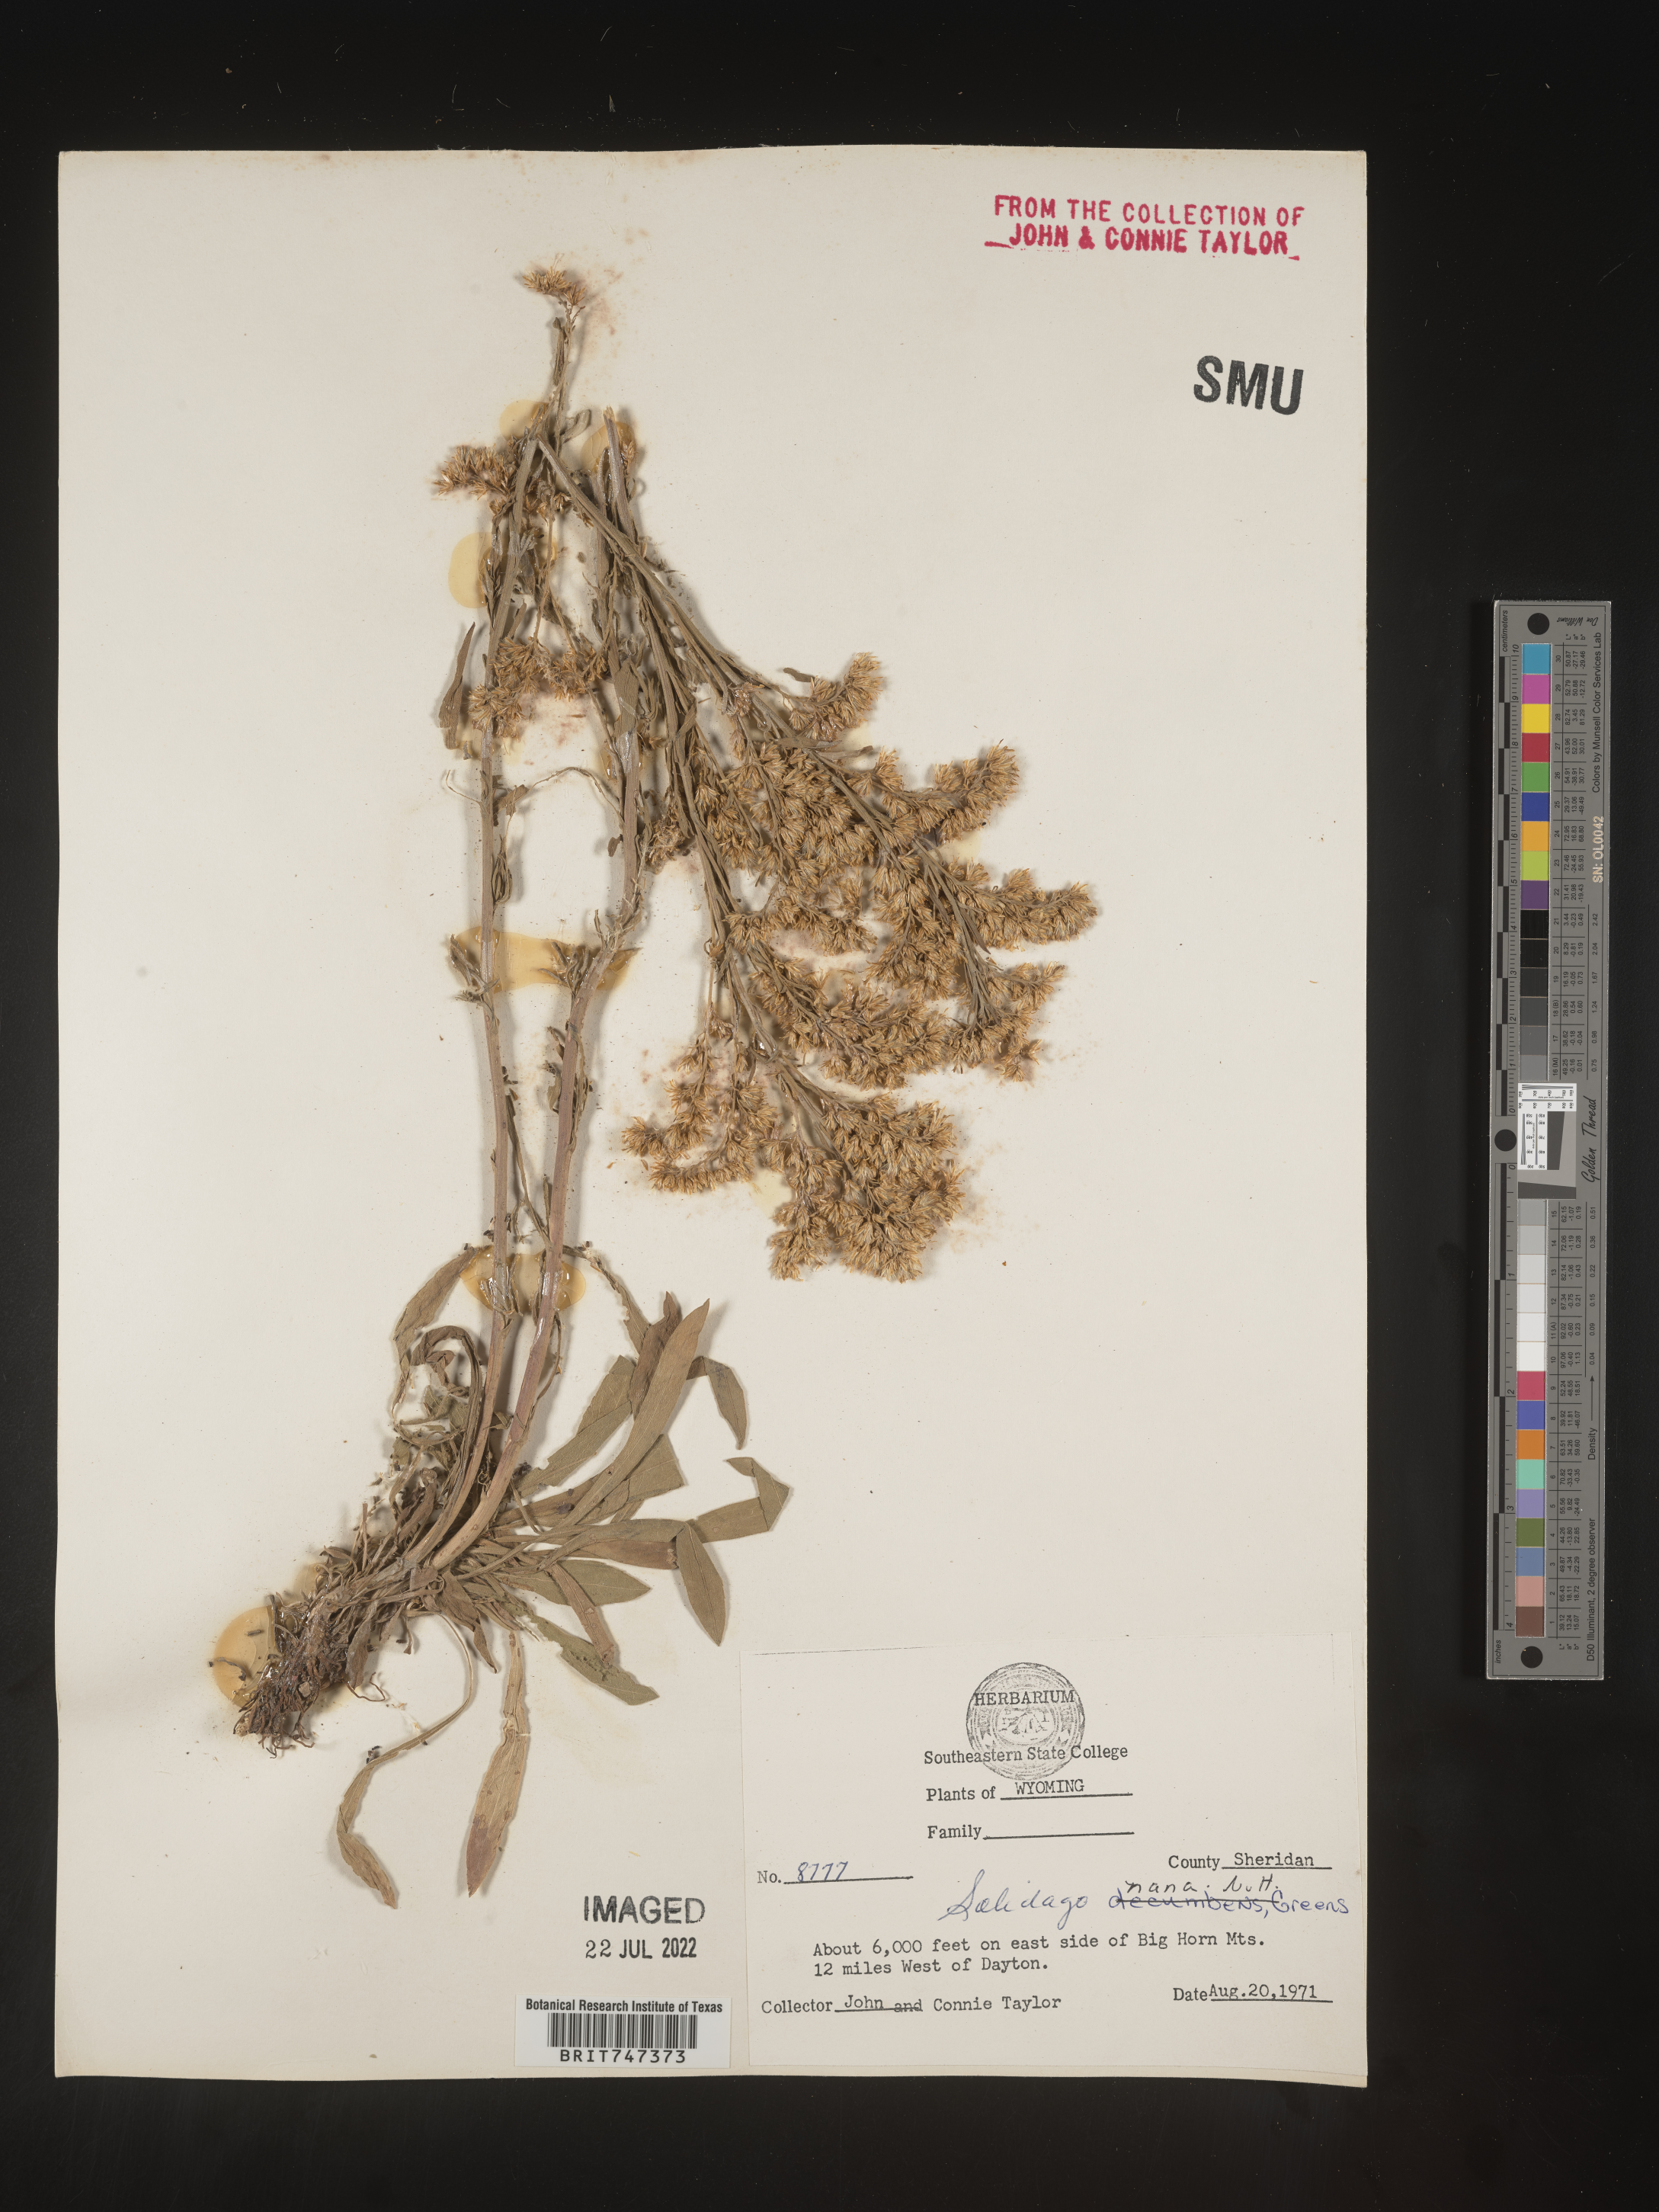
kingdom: Plantae
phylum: Tracheophyta
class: Magnoliopsida
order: Asterales
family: Asteraceae
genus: Solidago
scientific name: Solidago nana
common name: Baby goldenrod
